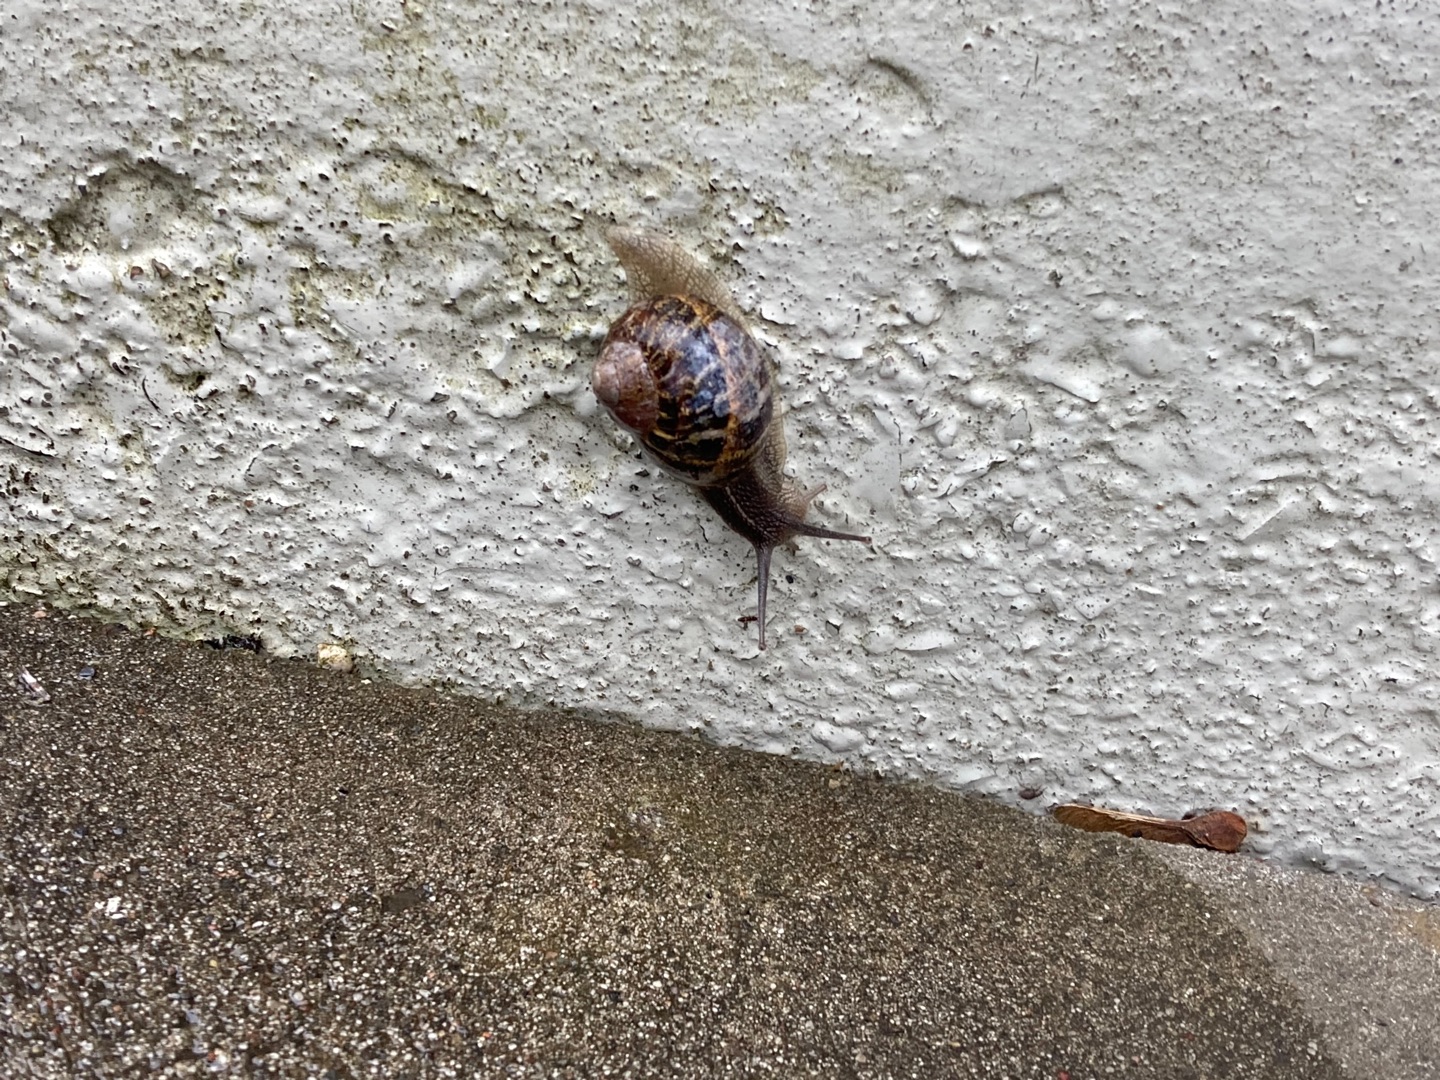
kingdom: Animalia
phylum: Mollusca
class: Gastropoda
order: Stylommatophora
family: Helicidae
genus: Cornu
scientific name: Cornu aspersum
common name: Plettet voldsnegl
